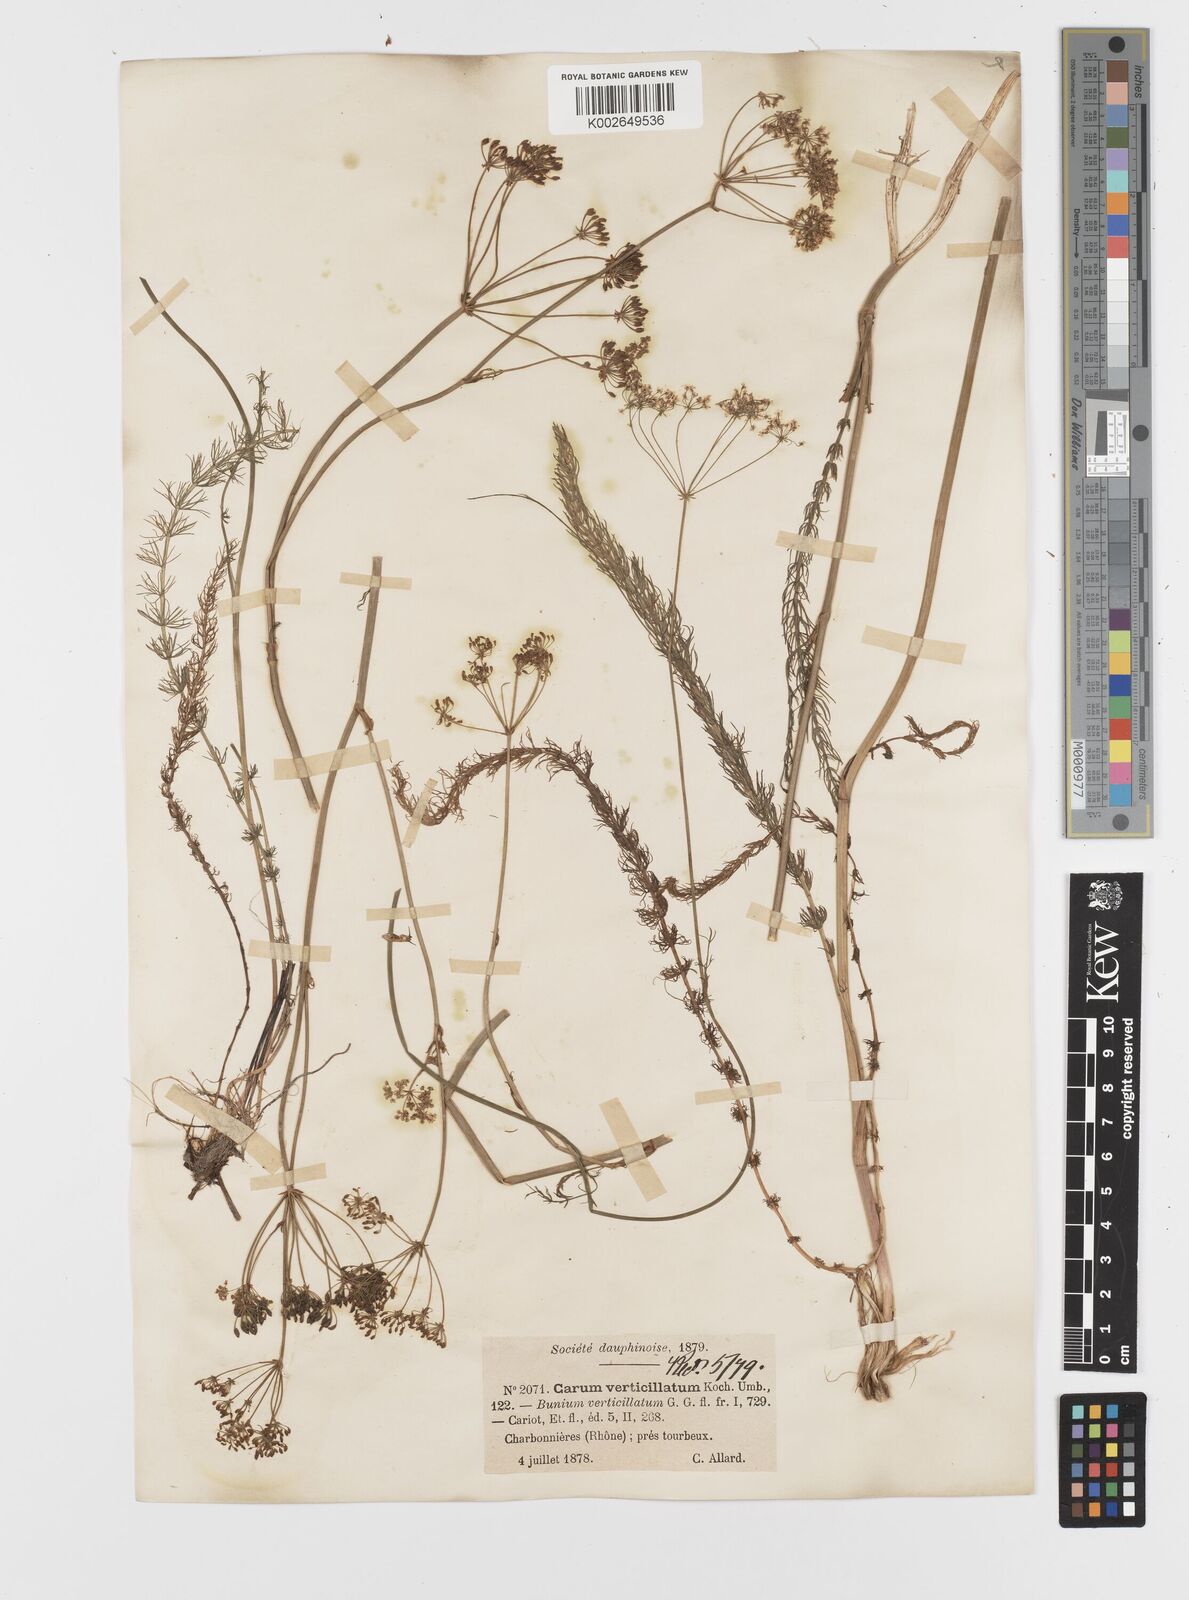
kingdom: Plantae
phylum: Tracheophyta
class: Magnoliopsida
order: Apiales
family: Apiaceae
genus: Trocdaris
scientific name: Trocdaris verticillatum
